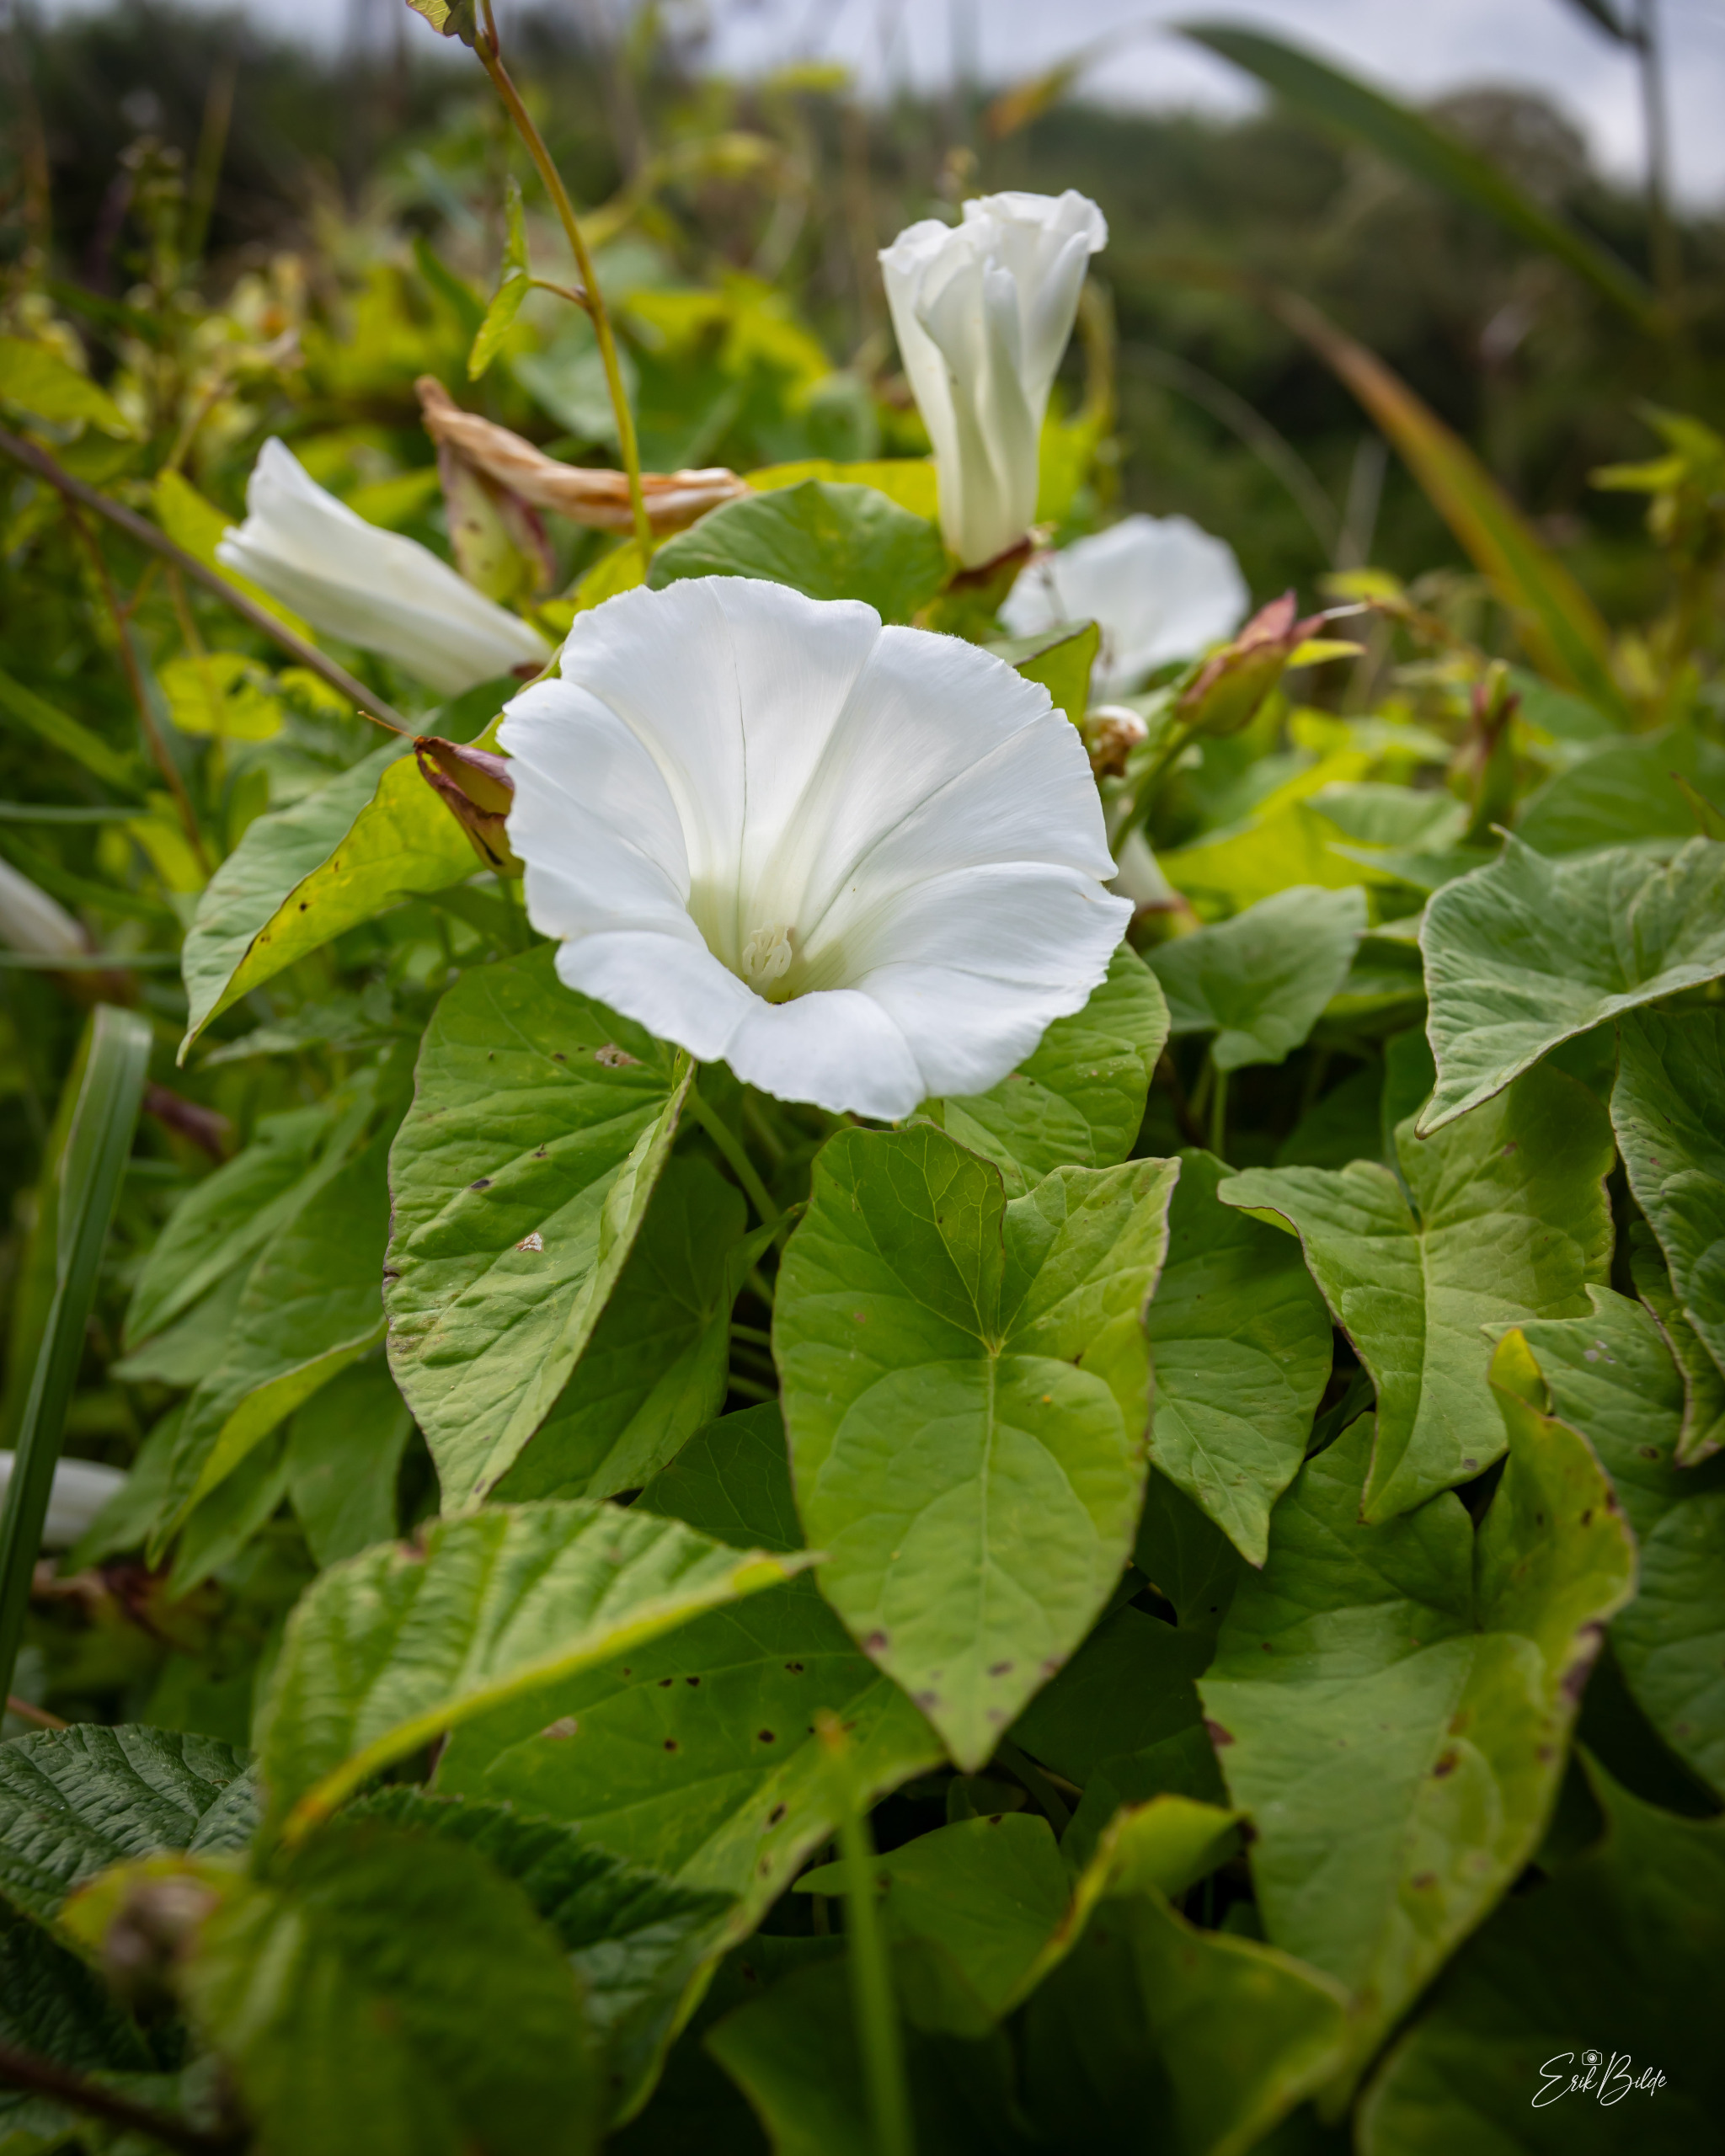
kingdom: Plantae
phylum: Tracheophyta
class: Magnoliopsida
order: Solanales
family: Convolvulaceae
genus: Calystegia
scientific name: Calystegia sepium
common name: Gærde-snerle
